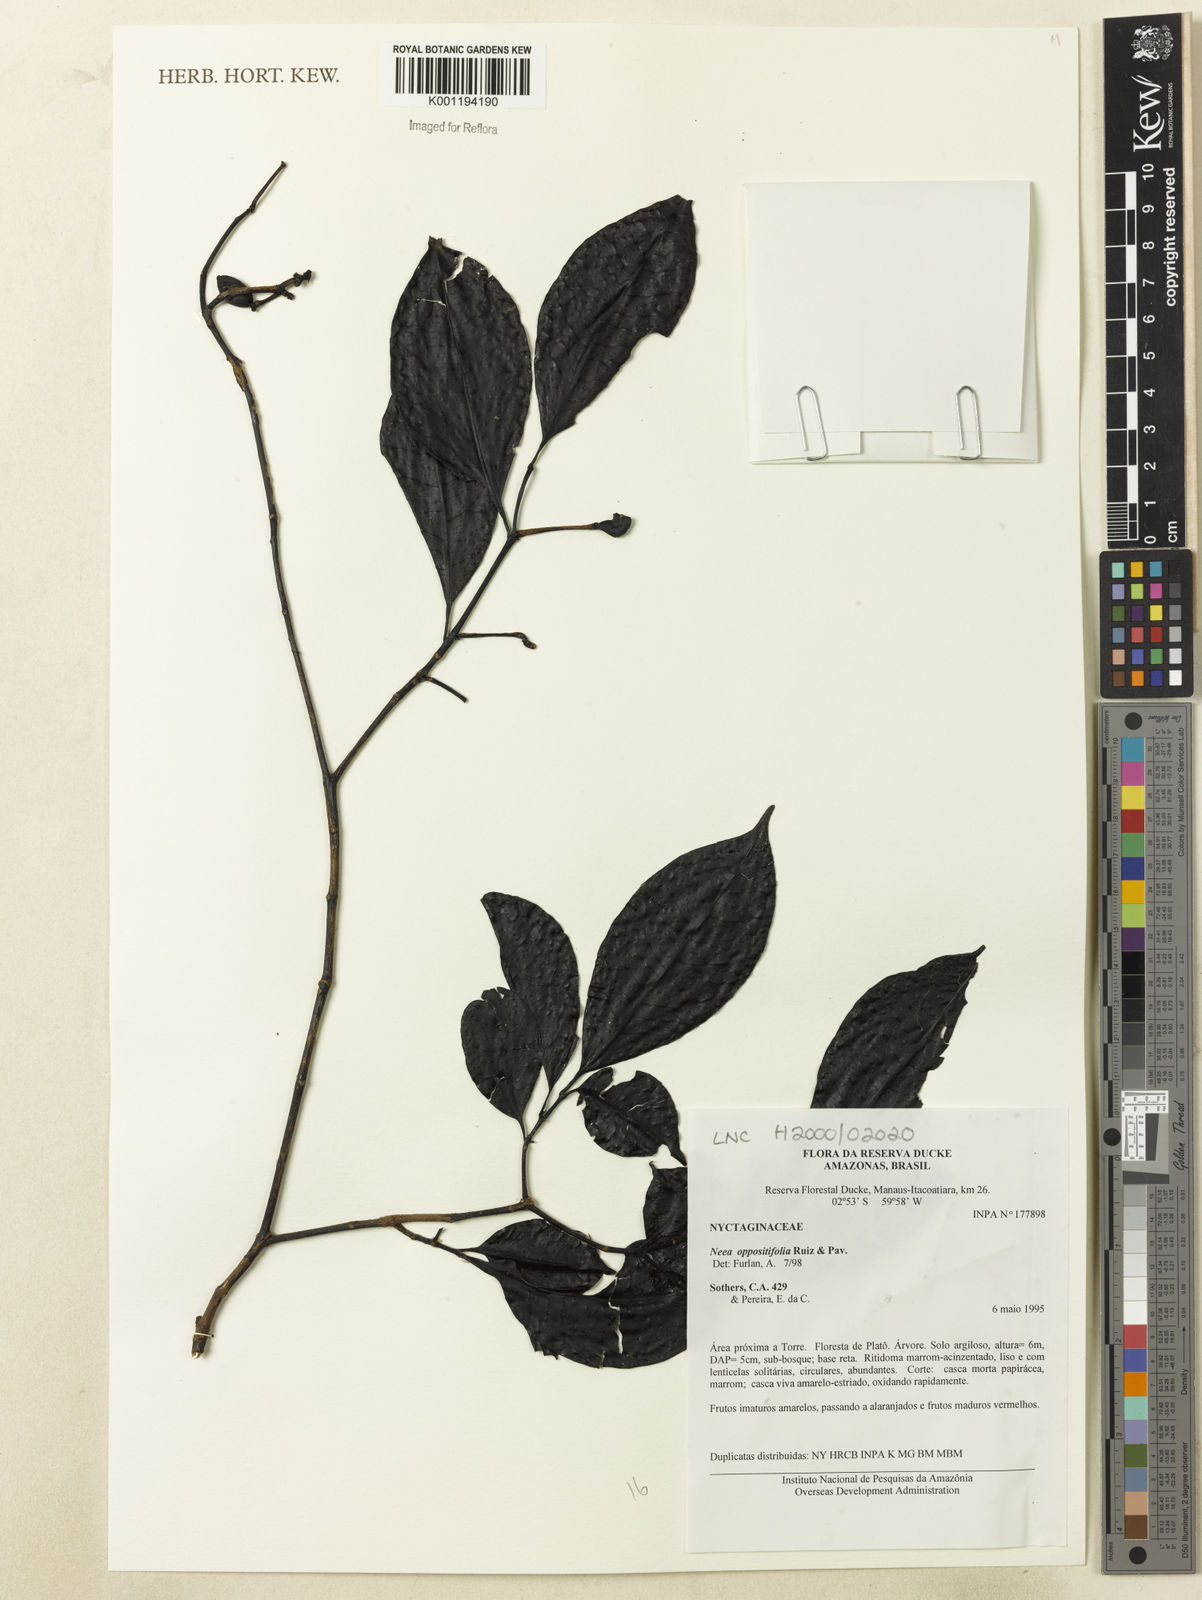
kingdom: Plantae
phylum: Tracheophyta
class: Magnoliopsida
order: Caryophyllales
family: Nyctaginaceae
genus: Neea
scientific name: Neea oppositifolia
